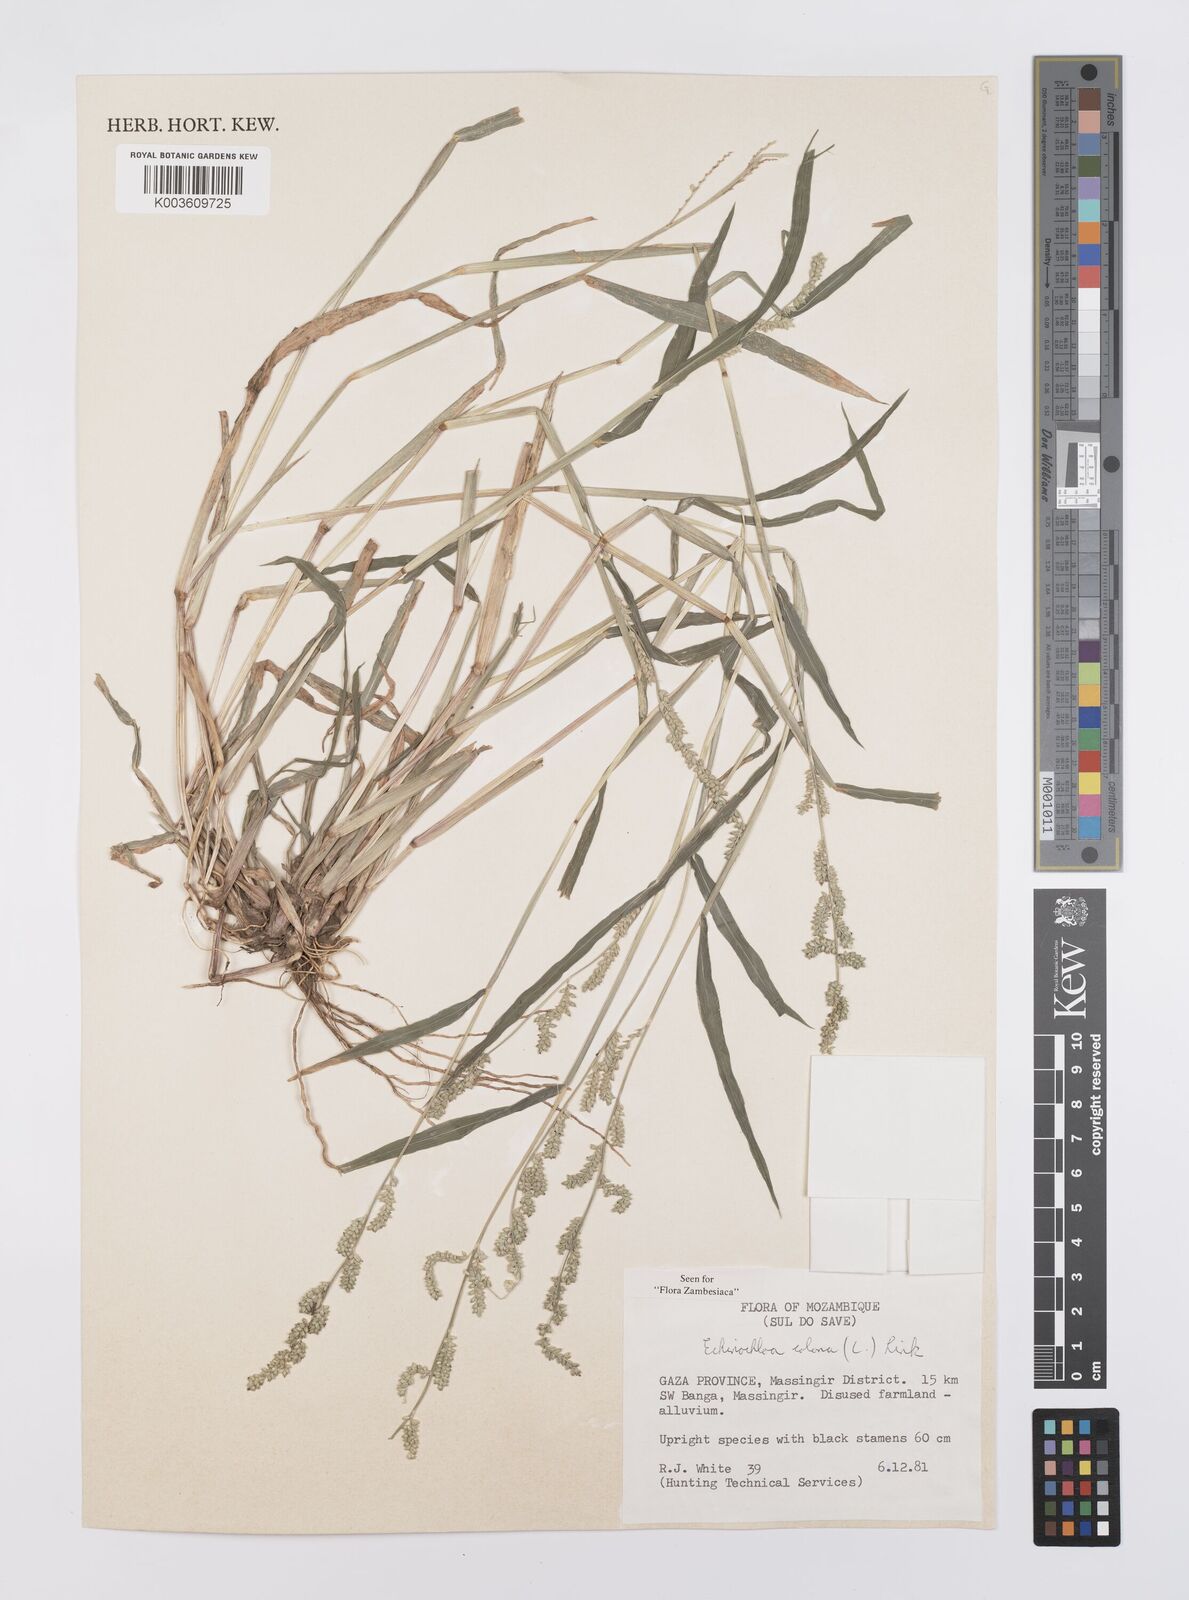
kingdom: Plantae
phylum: Tracheophyta
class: Liliopsida
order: Poales
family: Poaceae
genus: Echinochloa
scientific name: Echinochloa colonum
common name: Jungle rice
